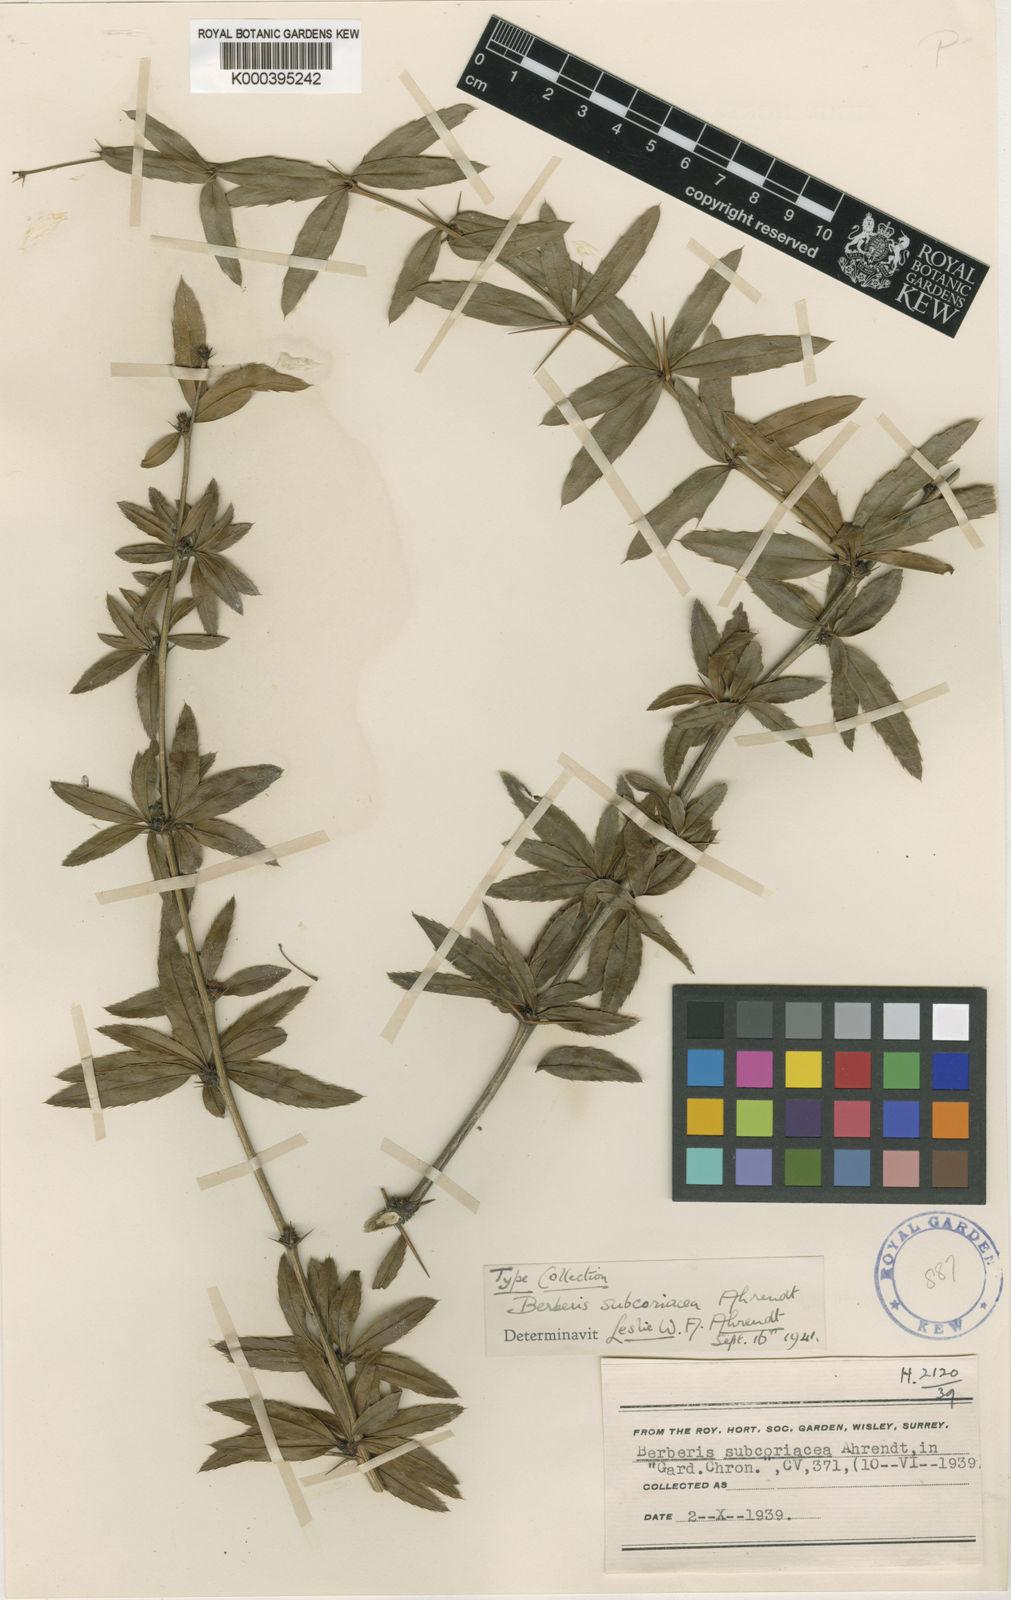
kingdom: Plantae
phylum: Tracheophyta
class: Magnoliopsida
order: Ranunculales
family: Berberidaceae
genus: Berberis
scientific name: Berberis levis
